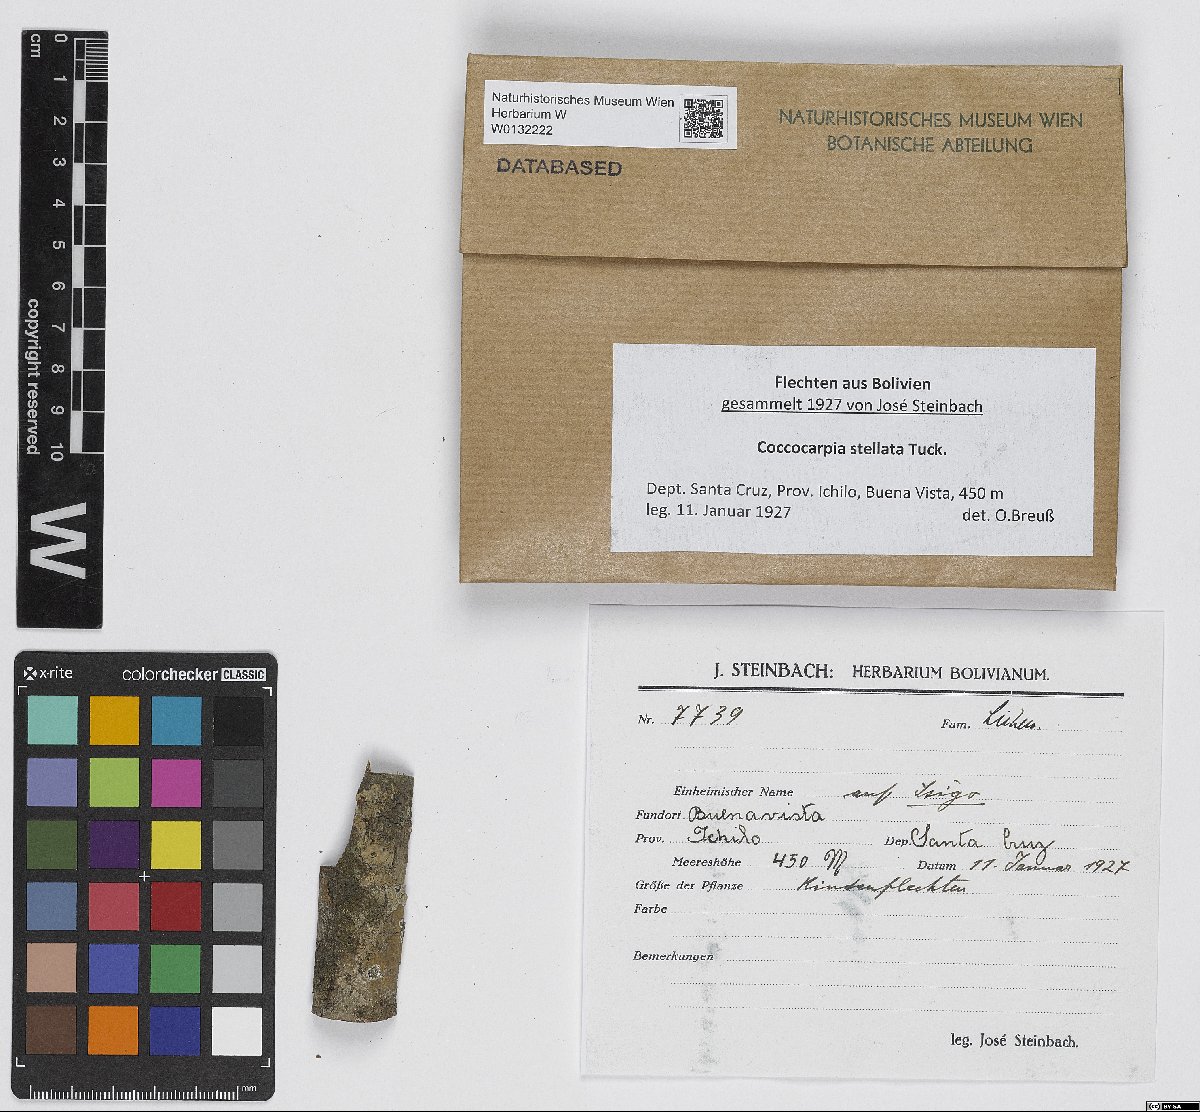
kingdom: Fungi
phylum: Ascomycota
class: Lecanoromycetes
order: Peltigerales
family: Coccocarpiaceae
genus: Coccocarpia
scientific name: Coccocarpia stellata
